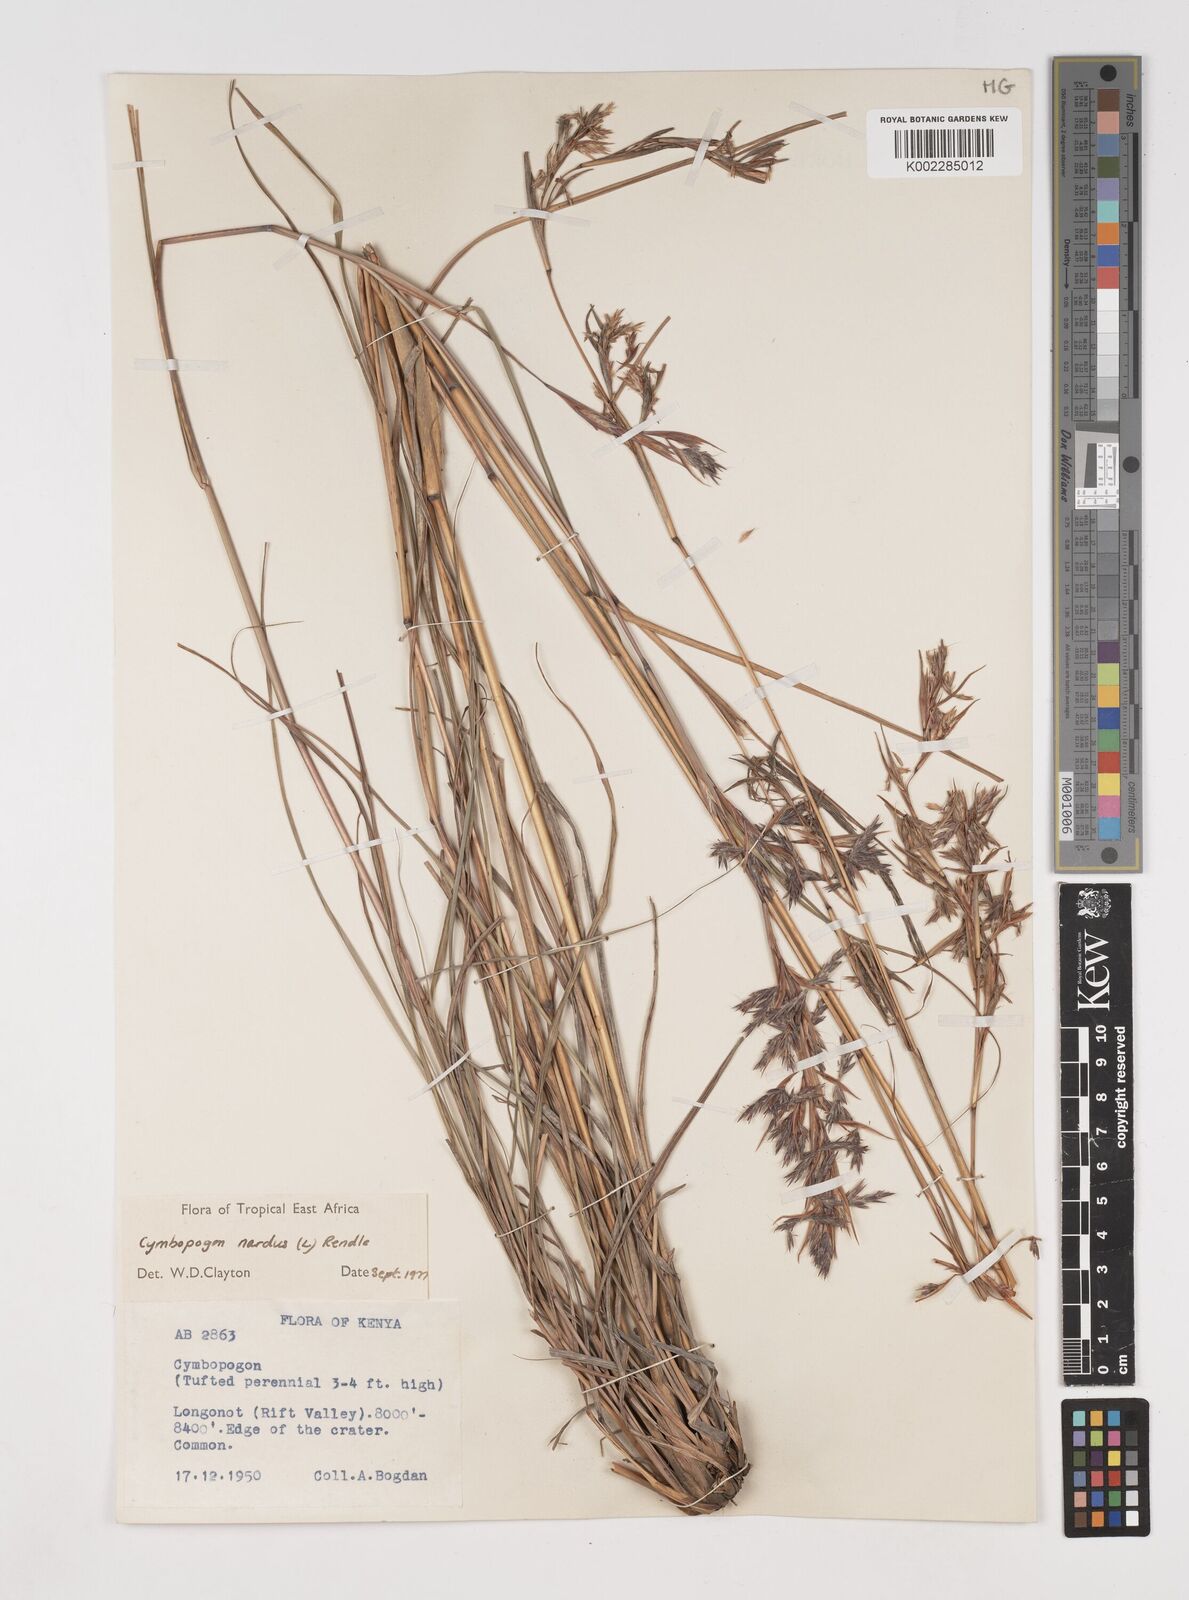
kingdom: Plantae
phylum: Tracheophyta
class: Liliopsida
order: Poales
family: Poaceae
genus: Cymbopogon
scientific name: Cymbopogon nardus
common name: Giant turpentine grass
